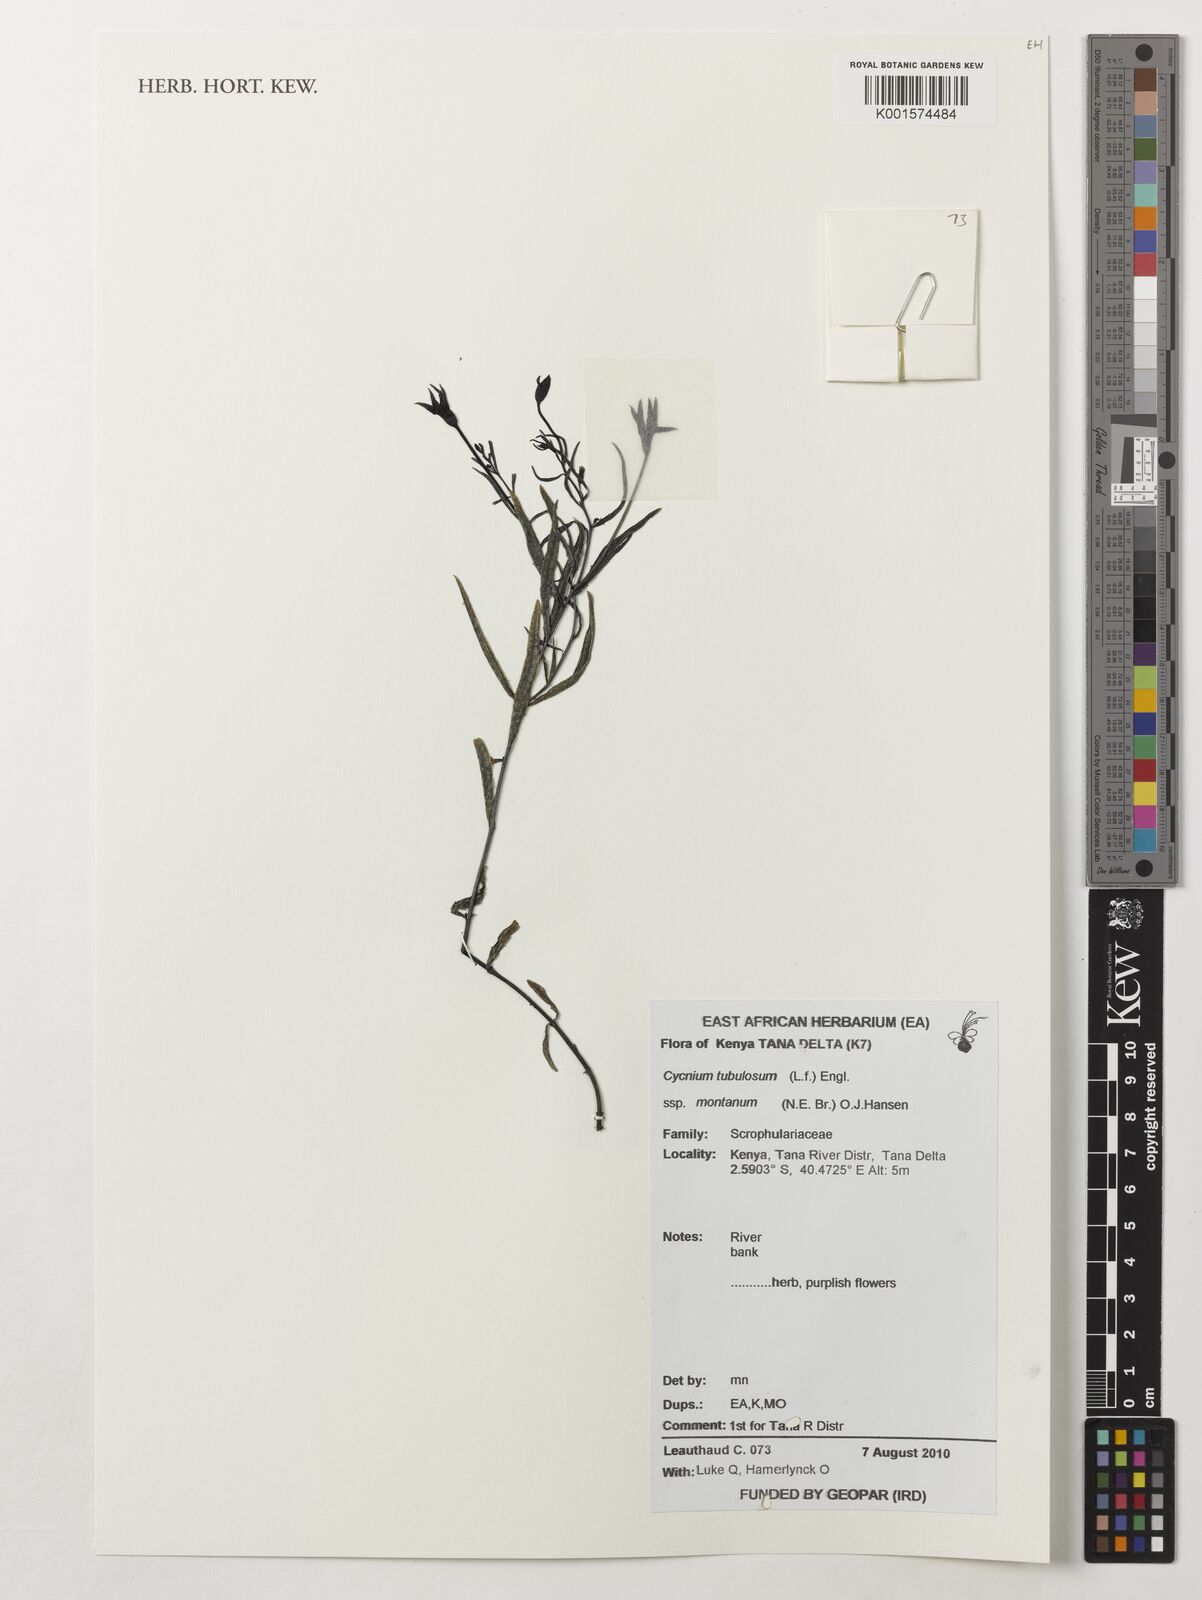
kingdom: Plantae
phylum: Tracheophyta
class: Magnoliopsida
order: Lamiales
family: Orobanchaceae
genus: Cycnium
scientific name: Cycnium tubulosum
